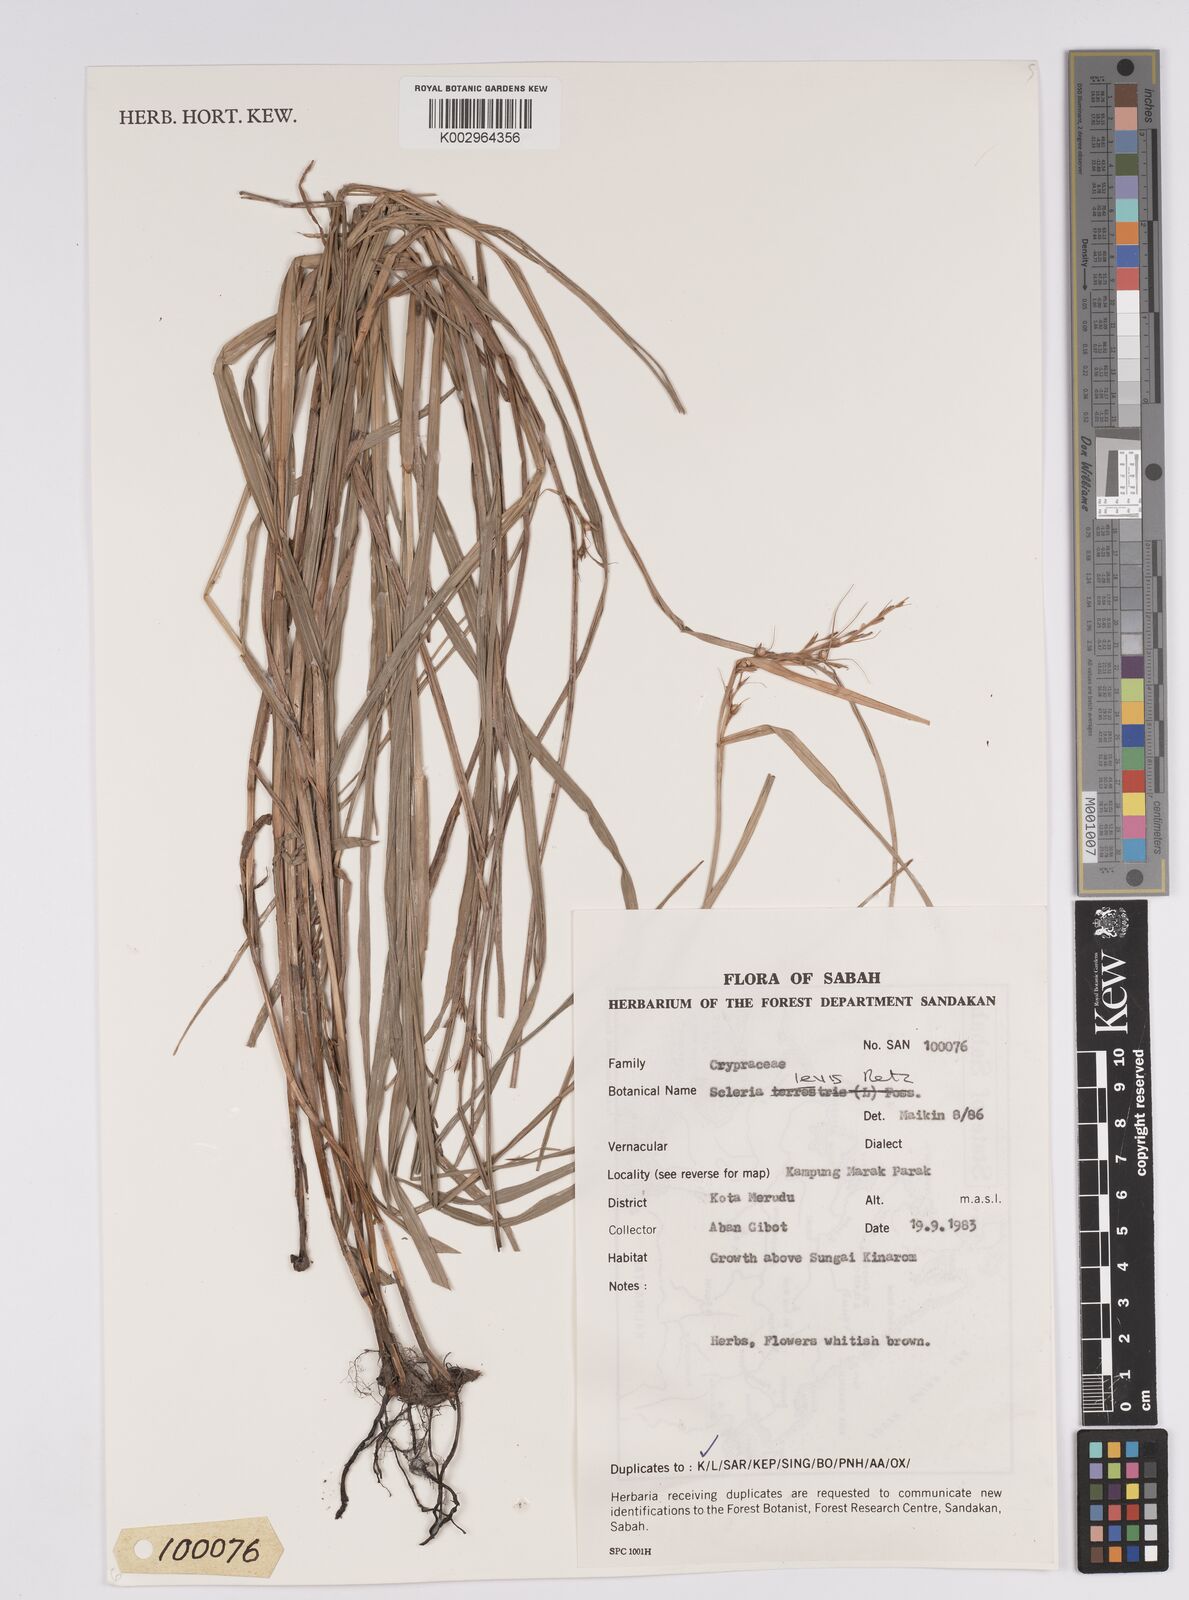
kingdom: Plantae
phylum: Tracheophyta
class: Liliopsida
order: Poales
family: Cyperaceae
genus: Scleria
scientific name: Scleria levis
